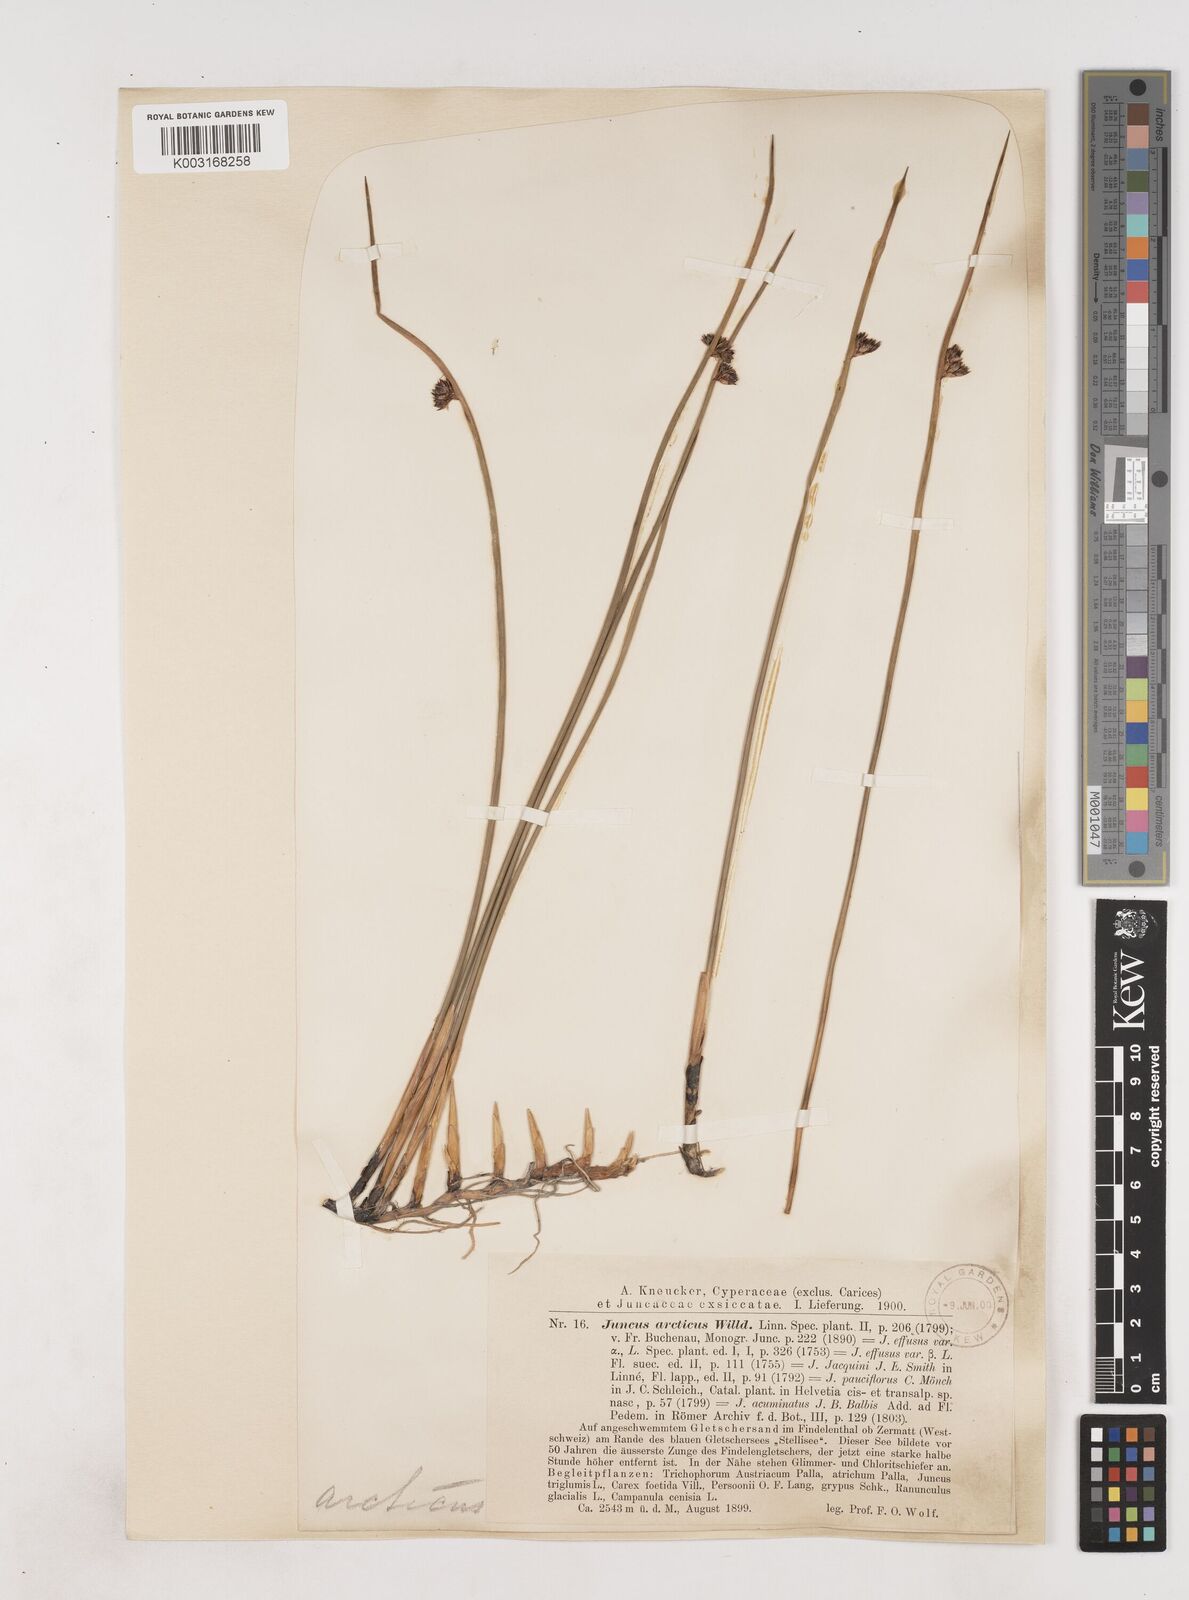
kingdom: Plantae
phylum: Tracheophyta
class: Liliopsida
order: Poales
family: Juncaceae
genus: Juncus
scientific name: Juncus arcticus
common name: Arctic rush
